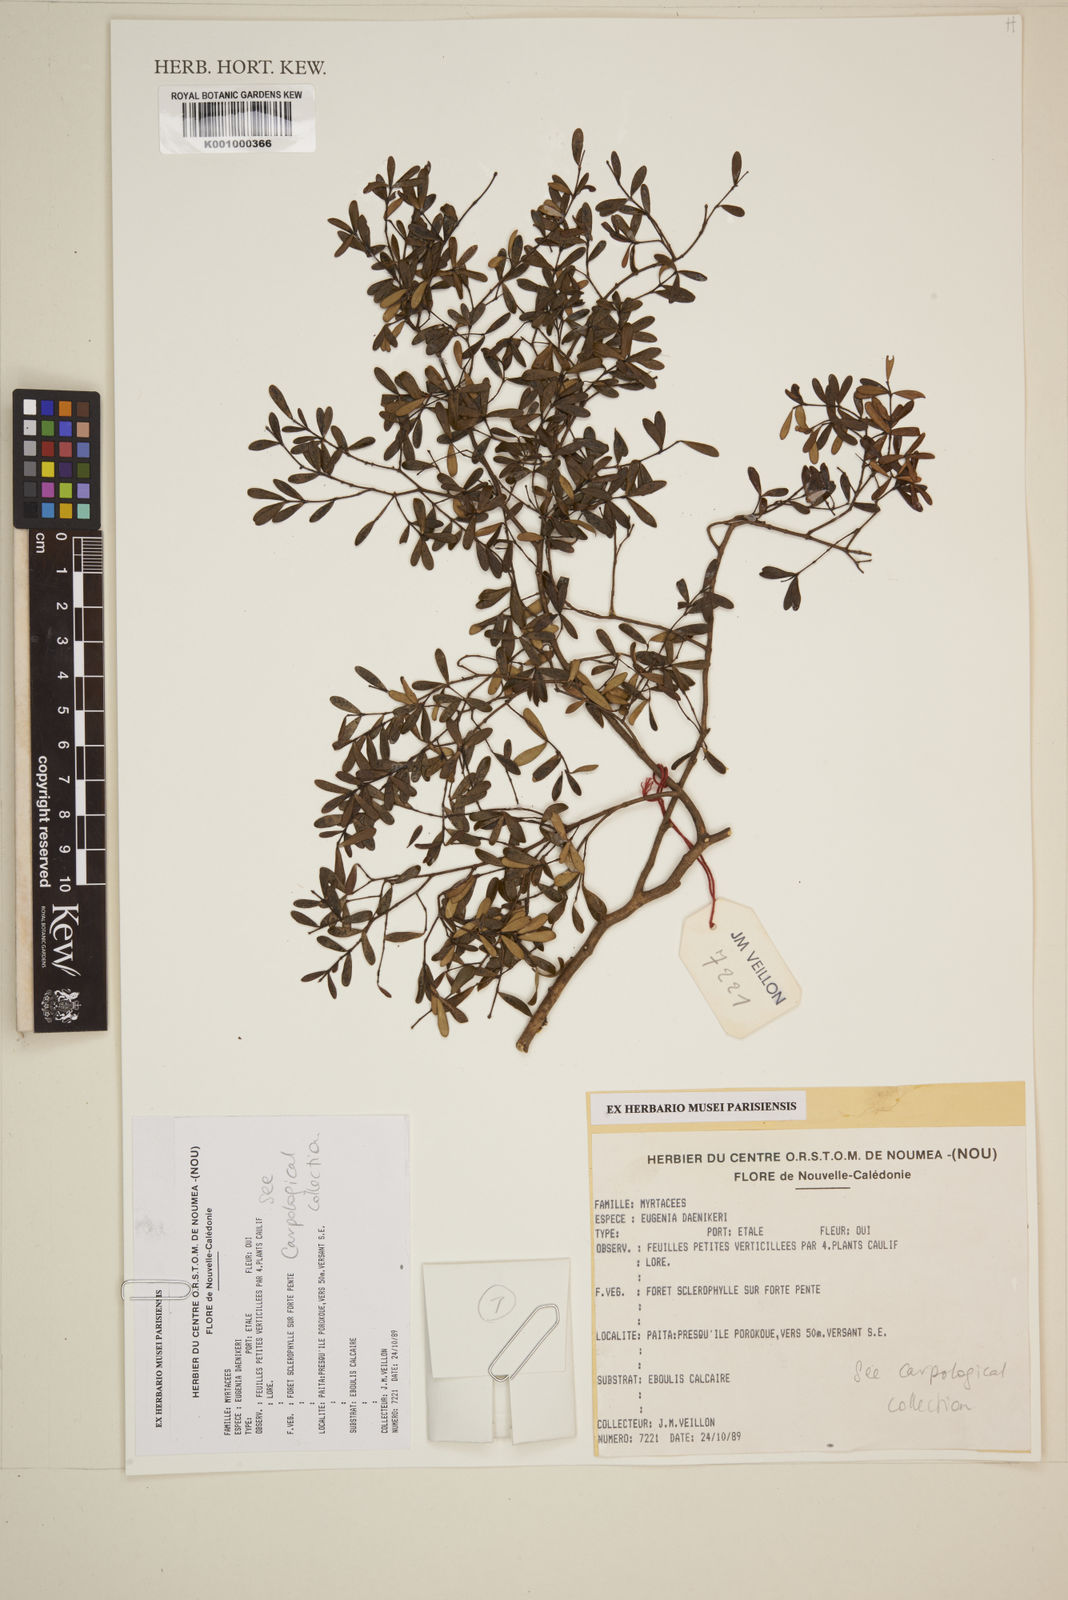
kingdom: Plantae
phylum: Tracheophyta
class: Magnoliopsida
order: Myrtales
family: Myrtaceae
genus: Eugenia
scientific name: Eugenia daenikeri
